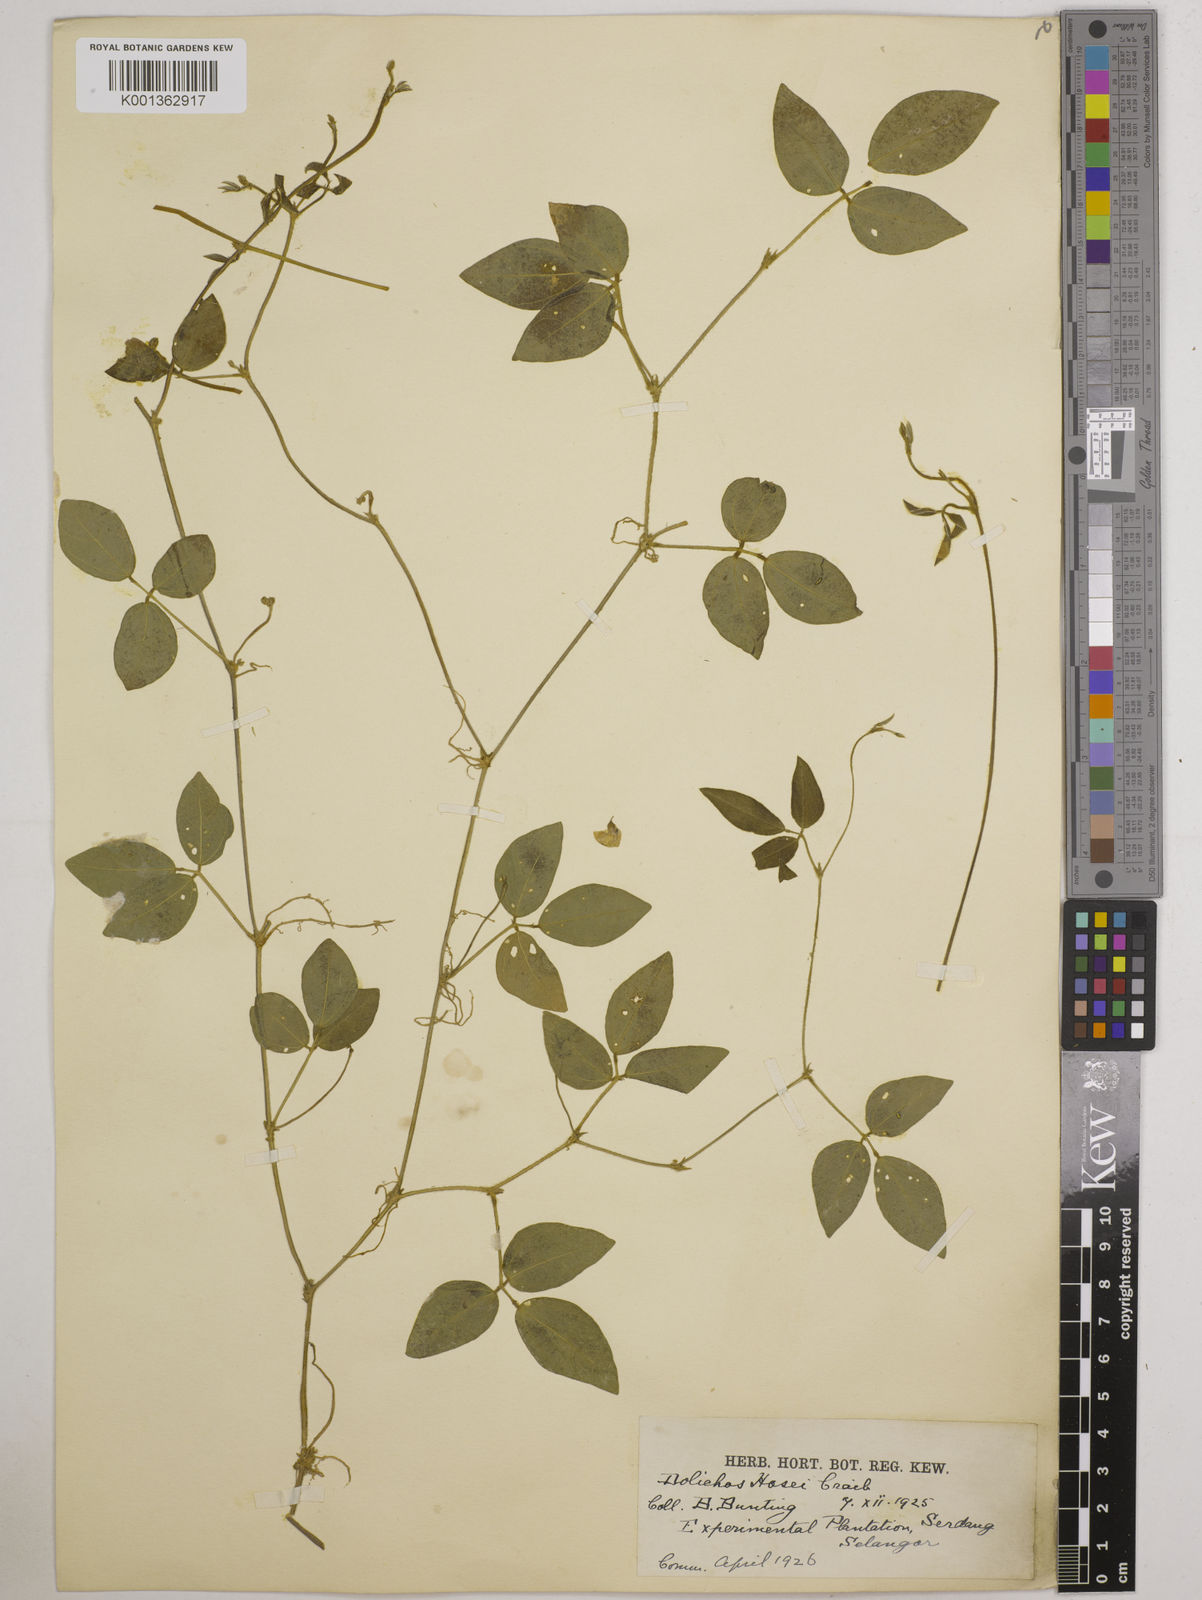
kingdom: Plantae
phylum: Tracheophyta
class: Magnoliopsida
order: Fabales
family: Fabaceae
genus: Vigna
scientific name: Vigna hosei
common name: Sarawak-bean
